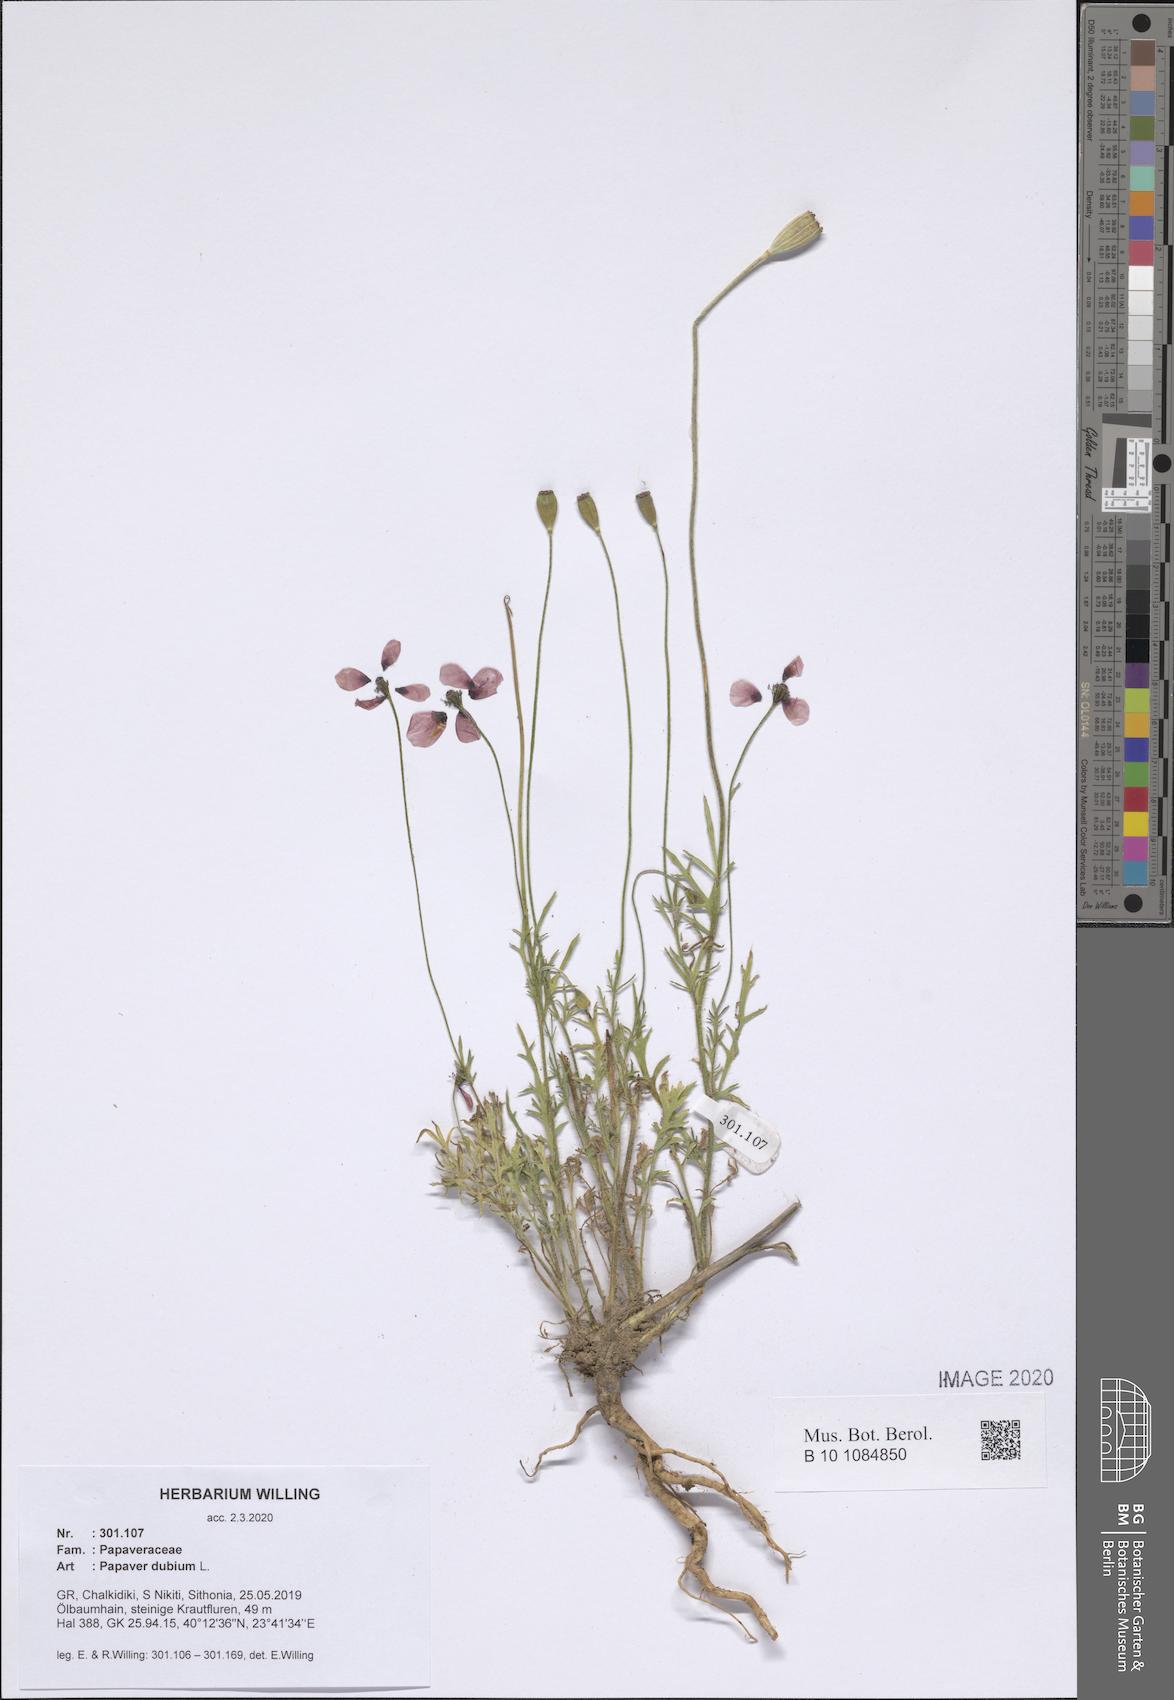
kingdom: Plantae
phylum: Tracheophyta
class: Magnoliopsida
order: Ranunculales
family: Papaveraceae
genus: Papaver
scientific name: Papaver dubium
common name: Long-headed poppy
